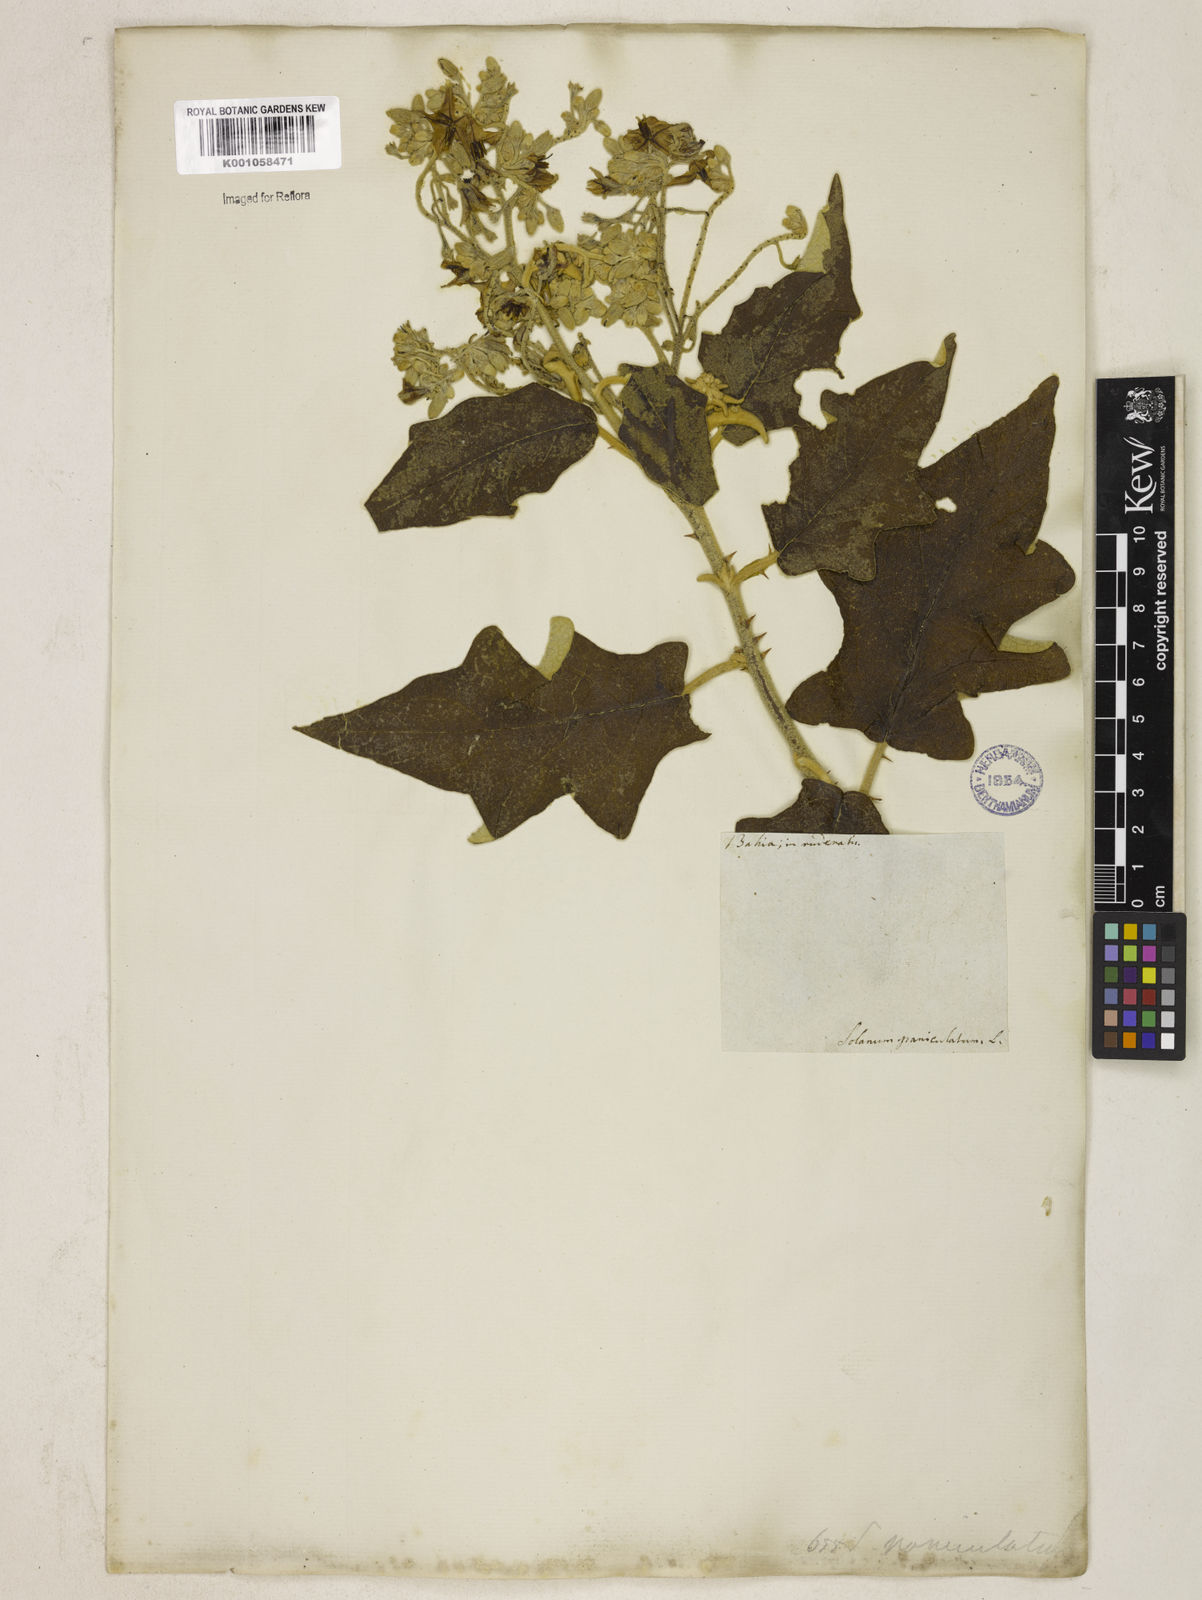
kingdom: Plantae
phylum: Tracheophyta
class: Magnoliopsida
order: Solanales
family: Solanaceae
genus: Solanum
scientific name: Solanum paniculatum
